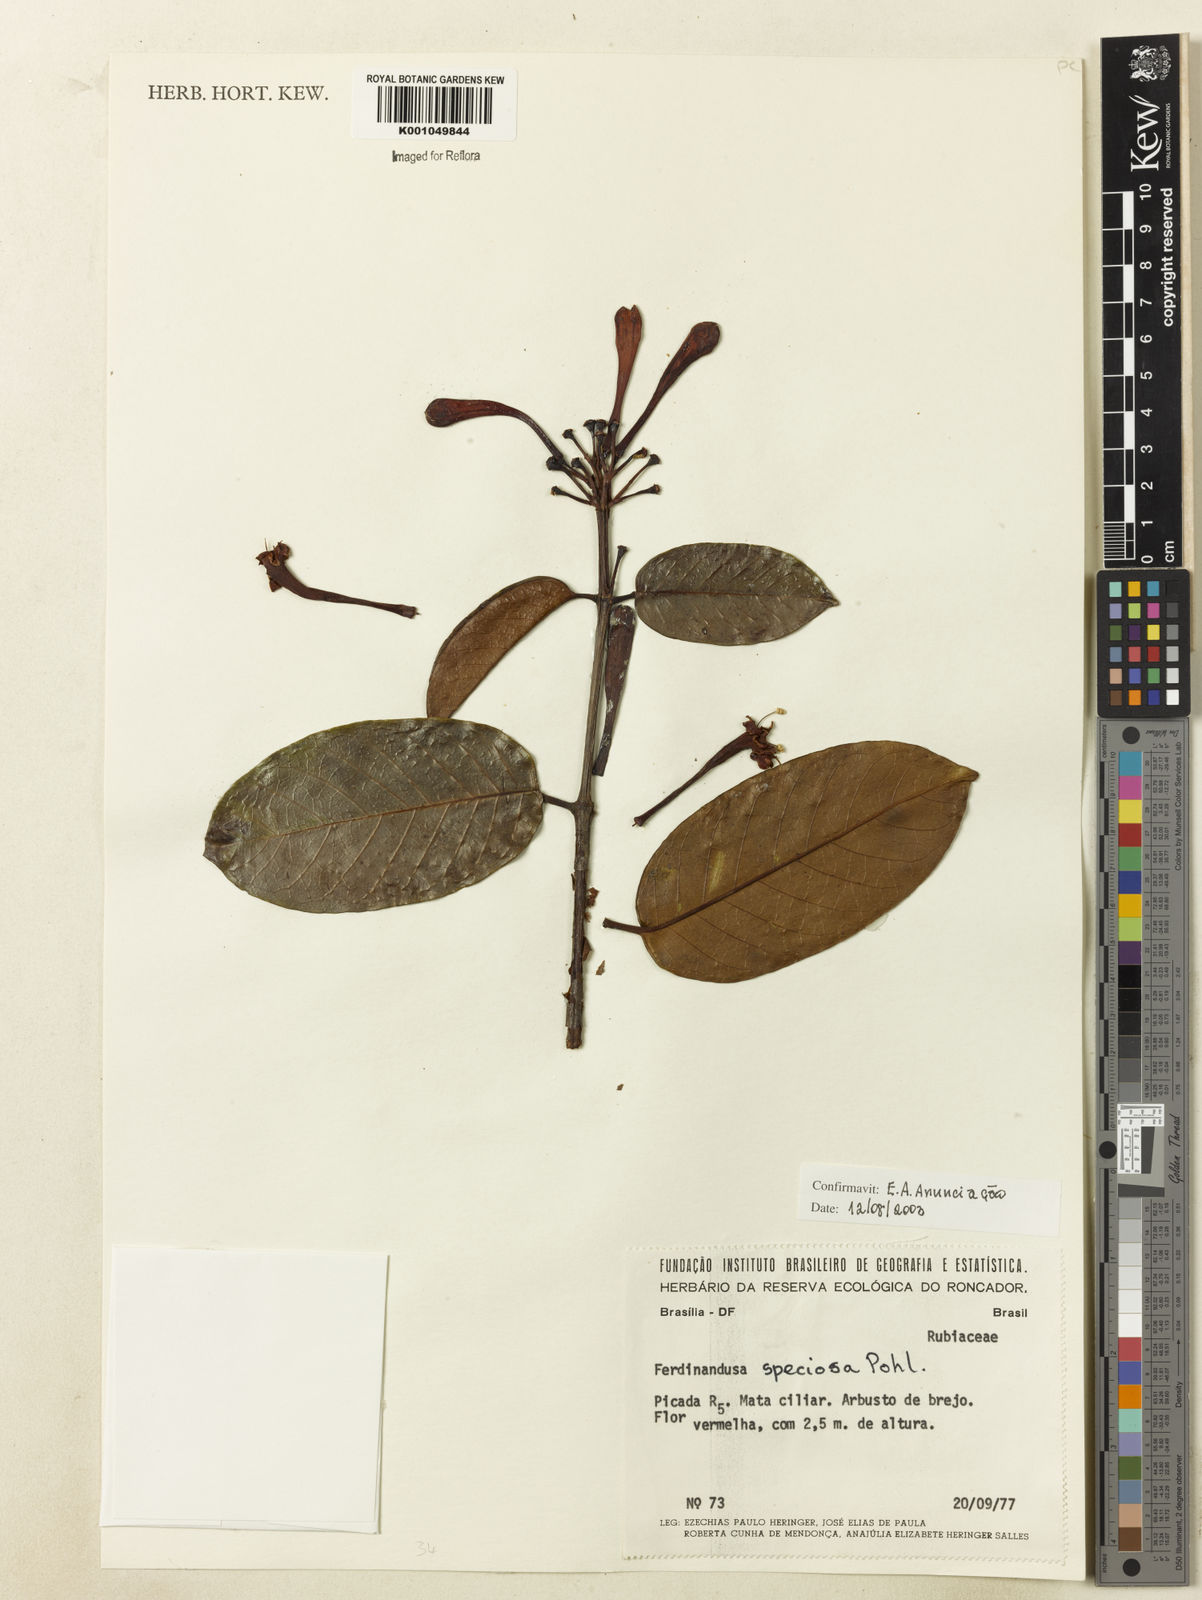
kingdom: Plantae
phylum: Tracheophyta
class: Magnoliopsida
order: Gentianales
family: Rubiaceae
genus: Ferdinandusa
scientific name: Ferdinandusa speciosa
